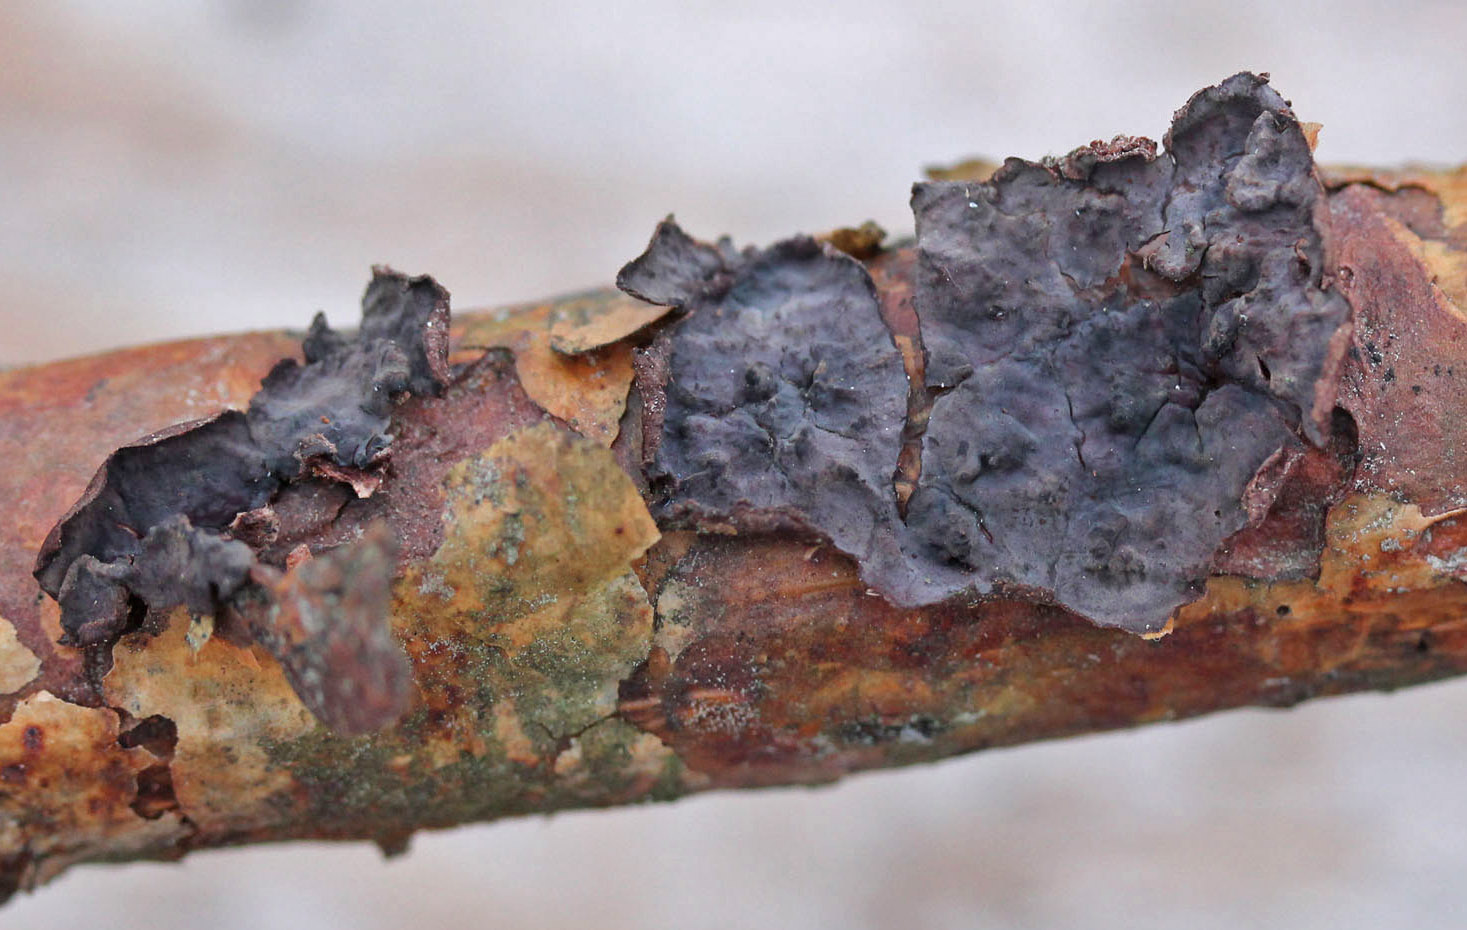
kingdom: Fungi
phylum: Basidiomycota
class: Agaricomycetes
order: Russulales
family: Peniophoraceae
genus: Peniophora
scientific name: Peniophora pini
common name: fyrre-voksskind
